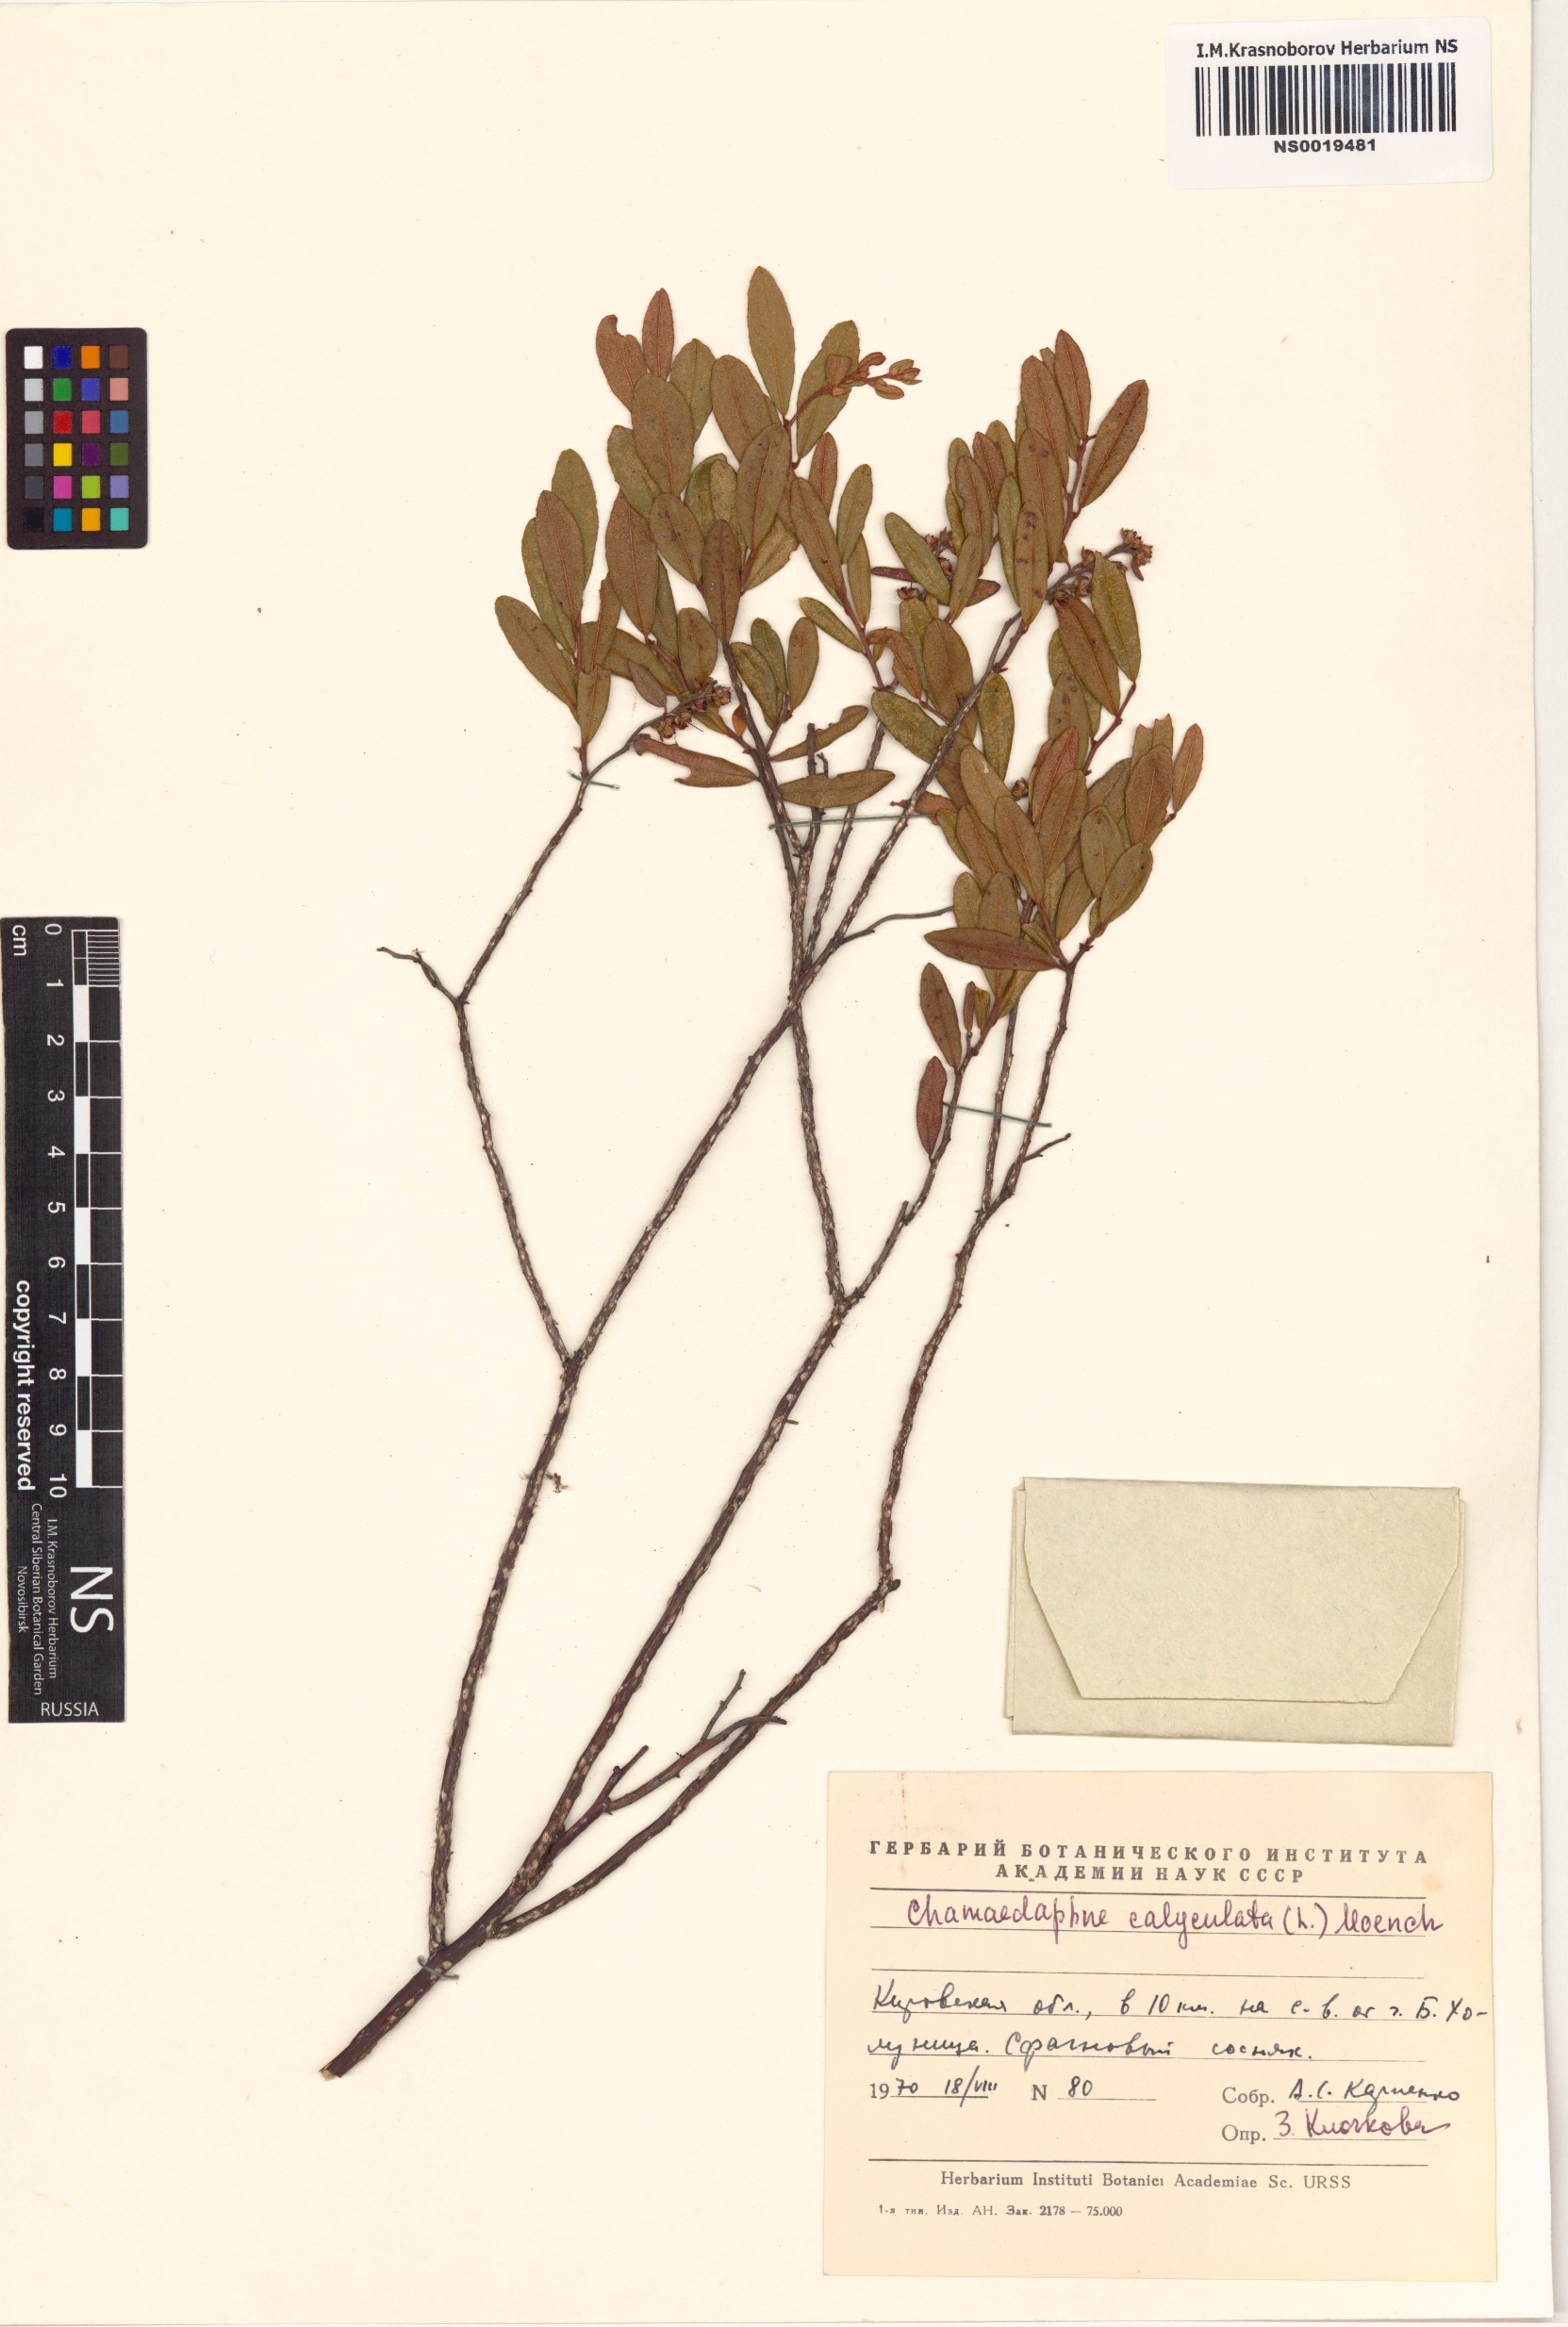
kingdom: Plantae
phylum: Tracheophyta
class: Magnoliopsida
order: Ericales
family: Ericaceae
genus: Chamaedaphne
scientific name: Chamaedaphne calyculata
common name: Leatherleaf
